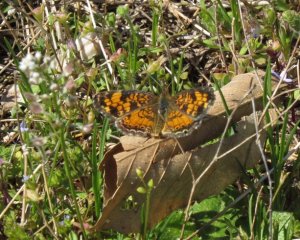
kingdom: Animalia
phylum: Arthropoda
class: Insecta
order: Lepidoptera
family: Nymphalidae
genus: Phyciodes
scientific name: Phyciodes tharos
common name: Pearl Crescent
